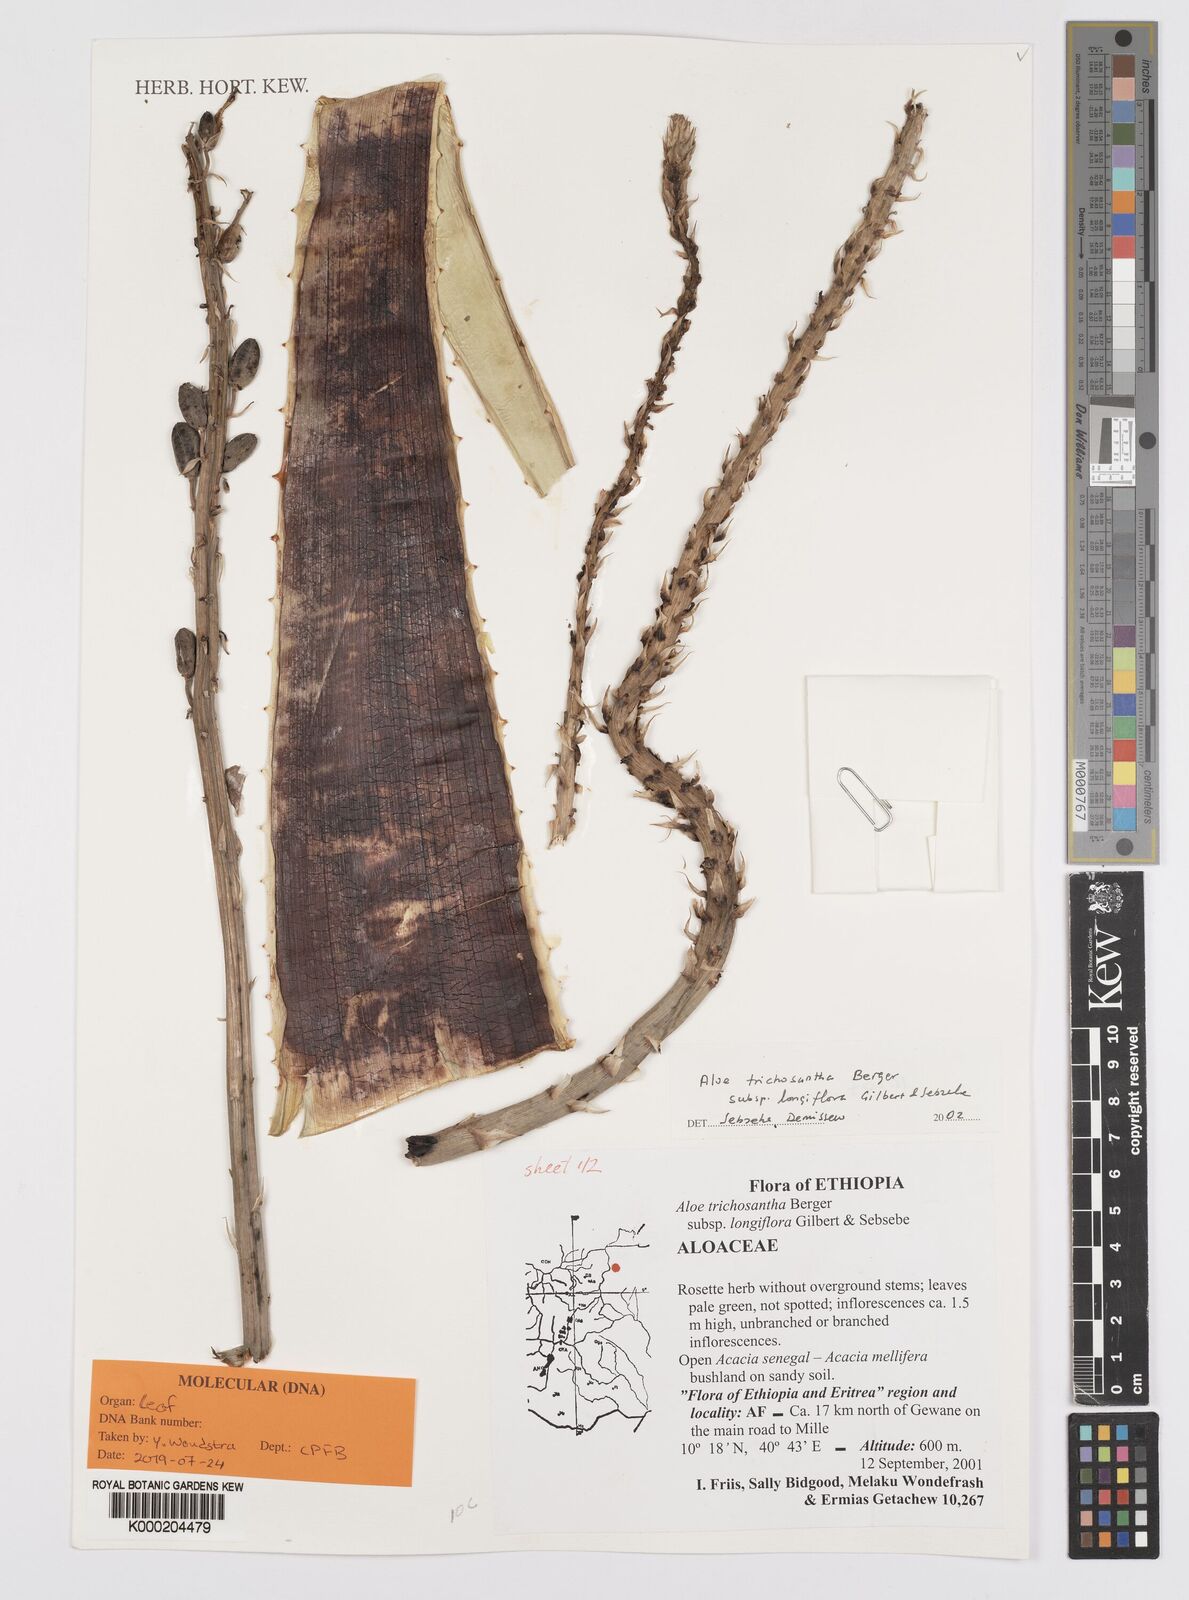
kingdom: Plantae
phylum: Tracheophyta
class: Liliopsida
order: Asparagales
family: Asphodelaceae
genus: Aloe
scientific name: Aloe trichosantha
